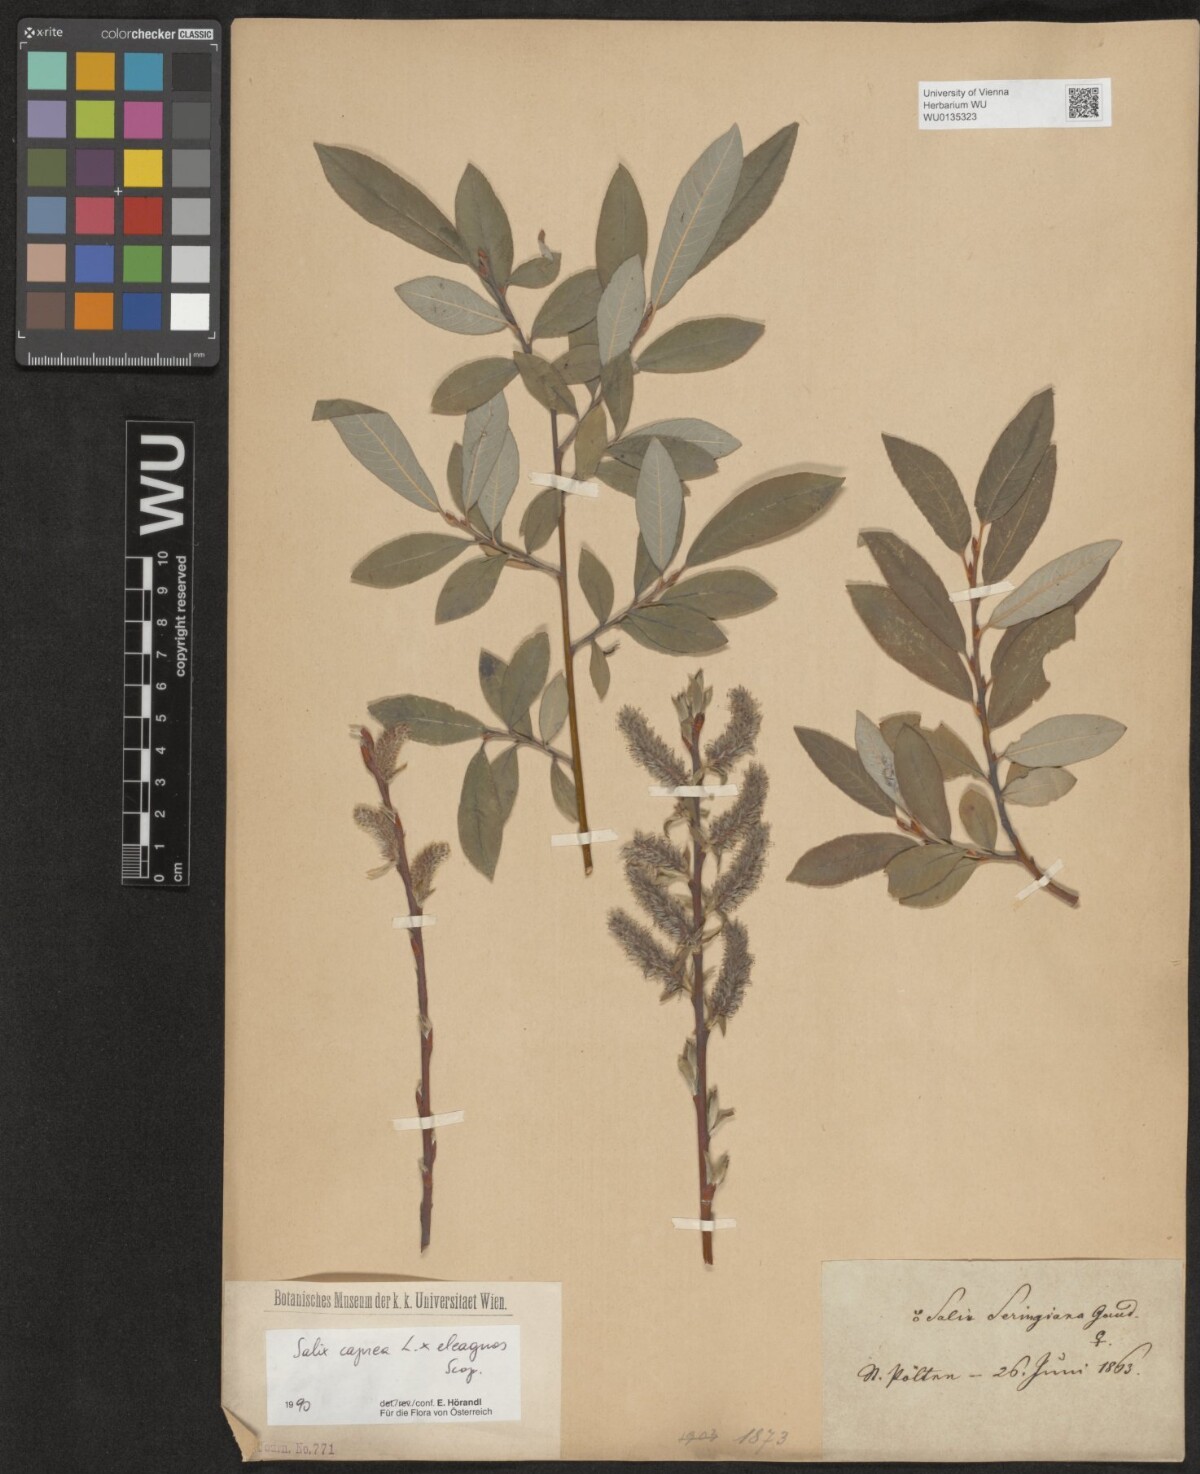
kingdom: Plantae
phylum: Tracheophyta
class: Magnoliopsida
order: Malpighiales
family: Salicaceae
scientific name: Salicaceae
